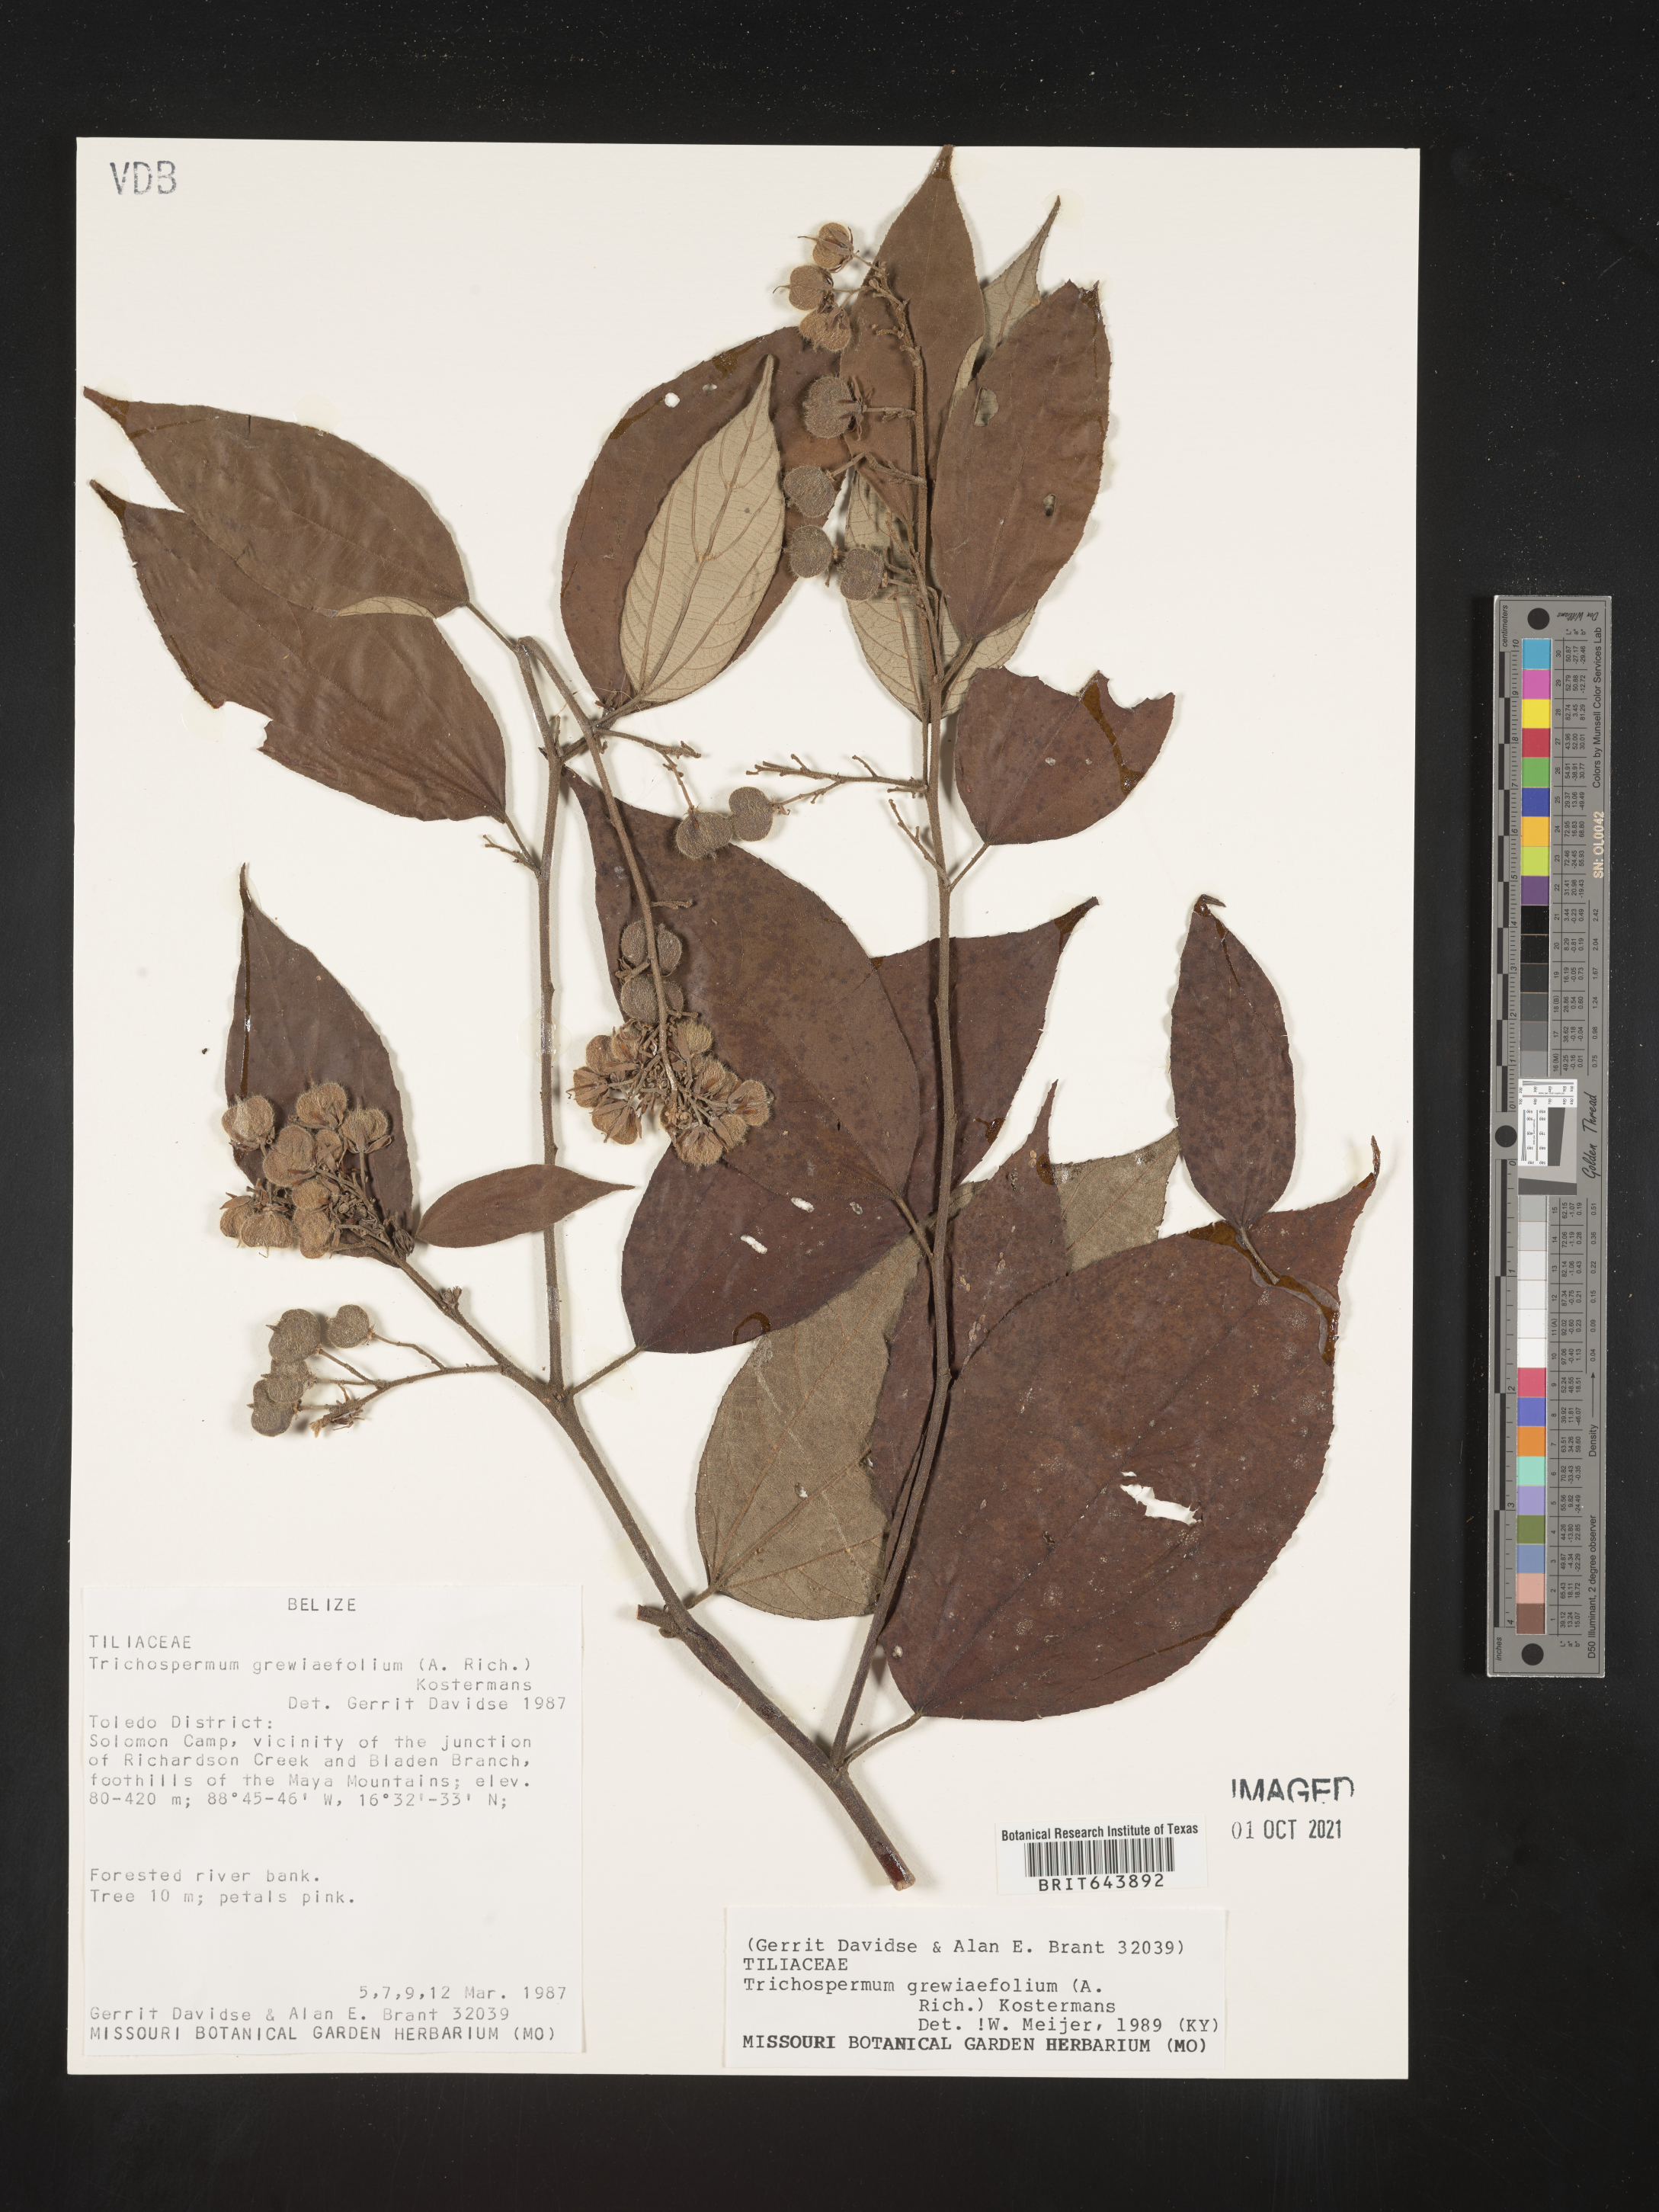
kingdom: Plantae
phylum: Tracheophyta
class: Magnoliopsida
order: Malvales
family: Malvaceae
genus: Trichospermum
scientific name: Trichospermum
